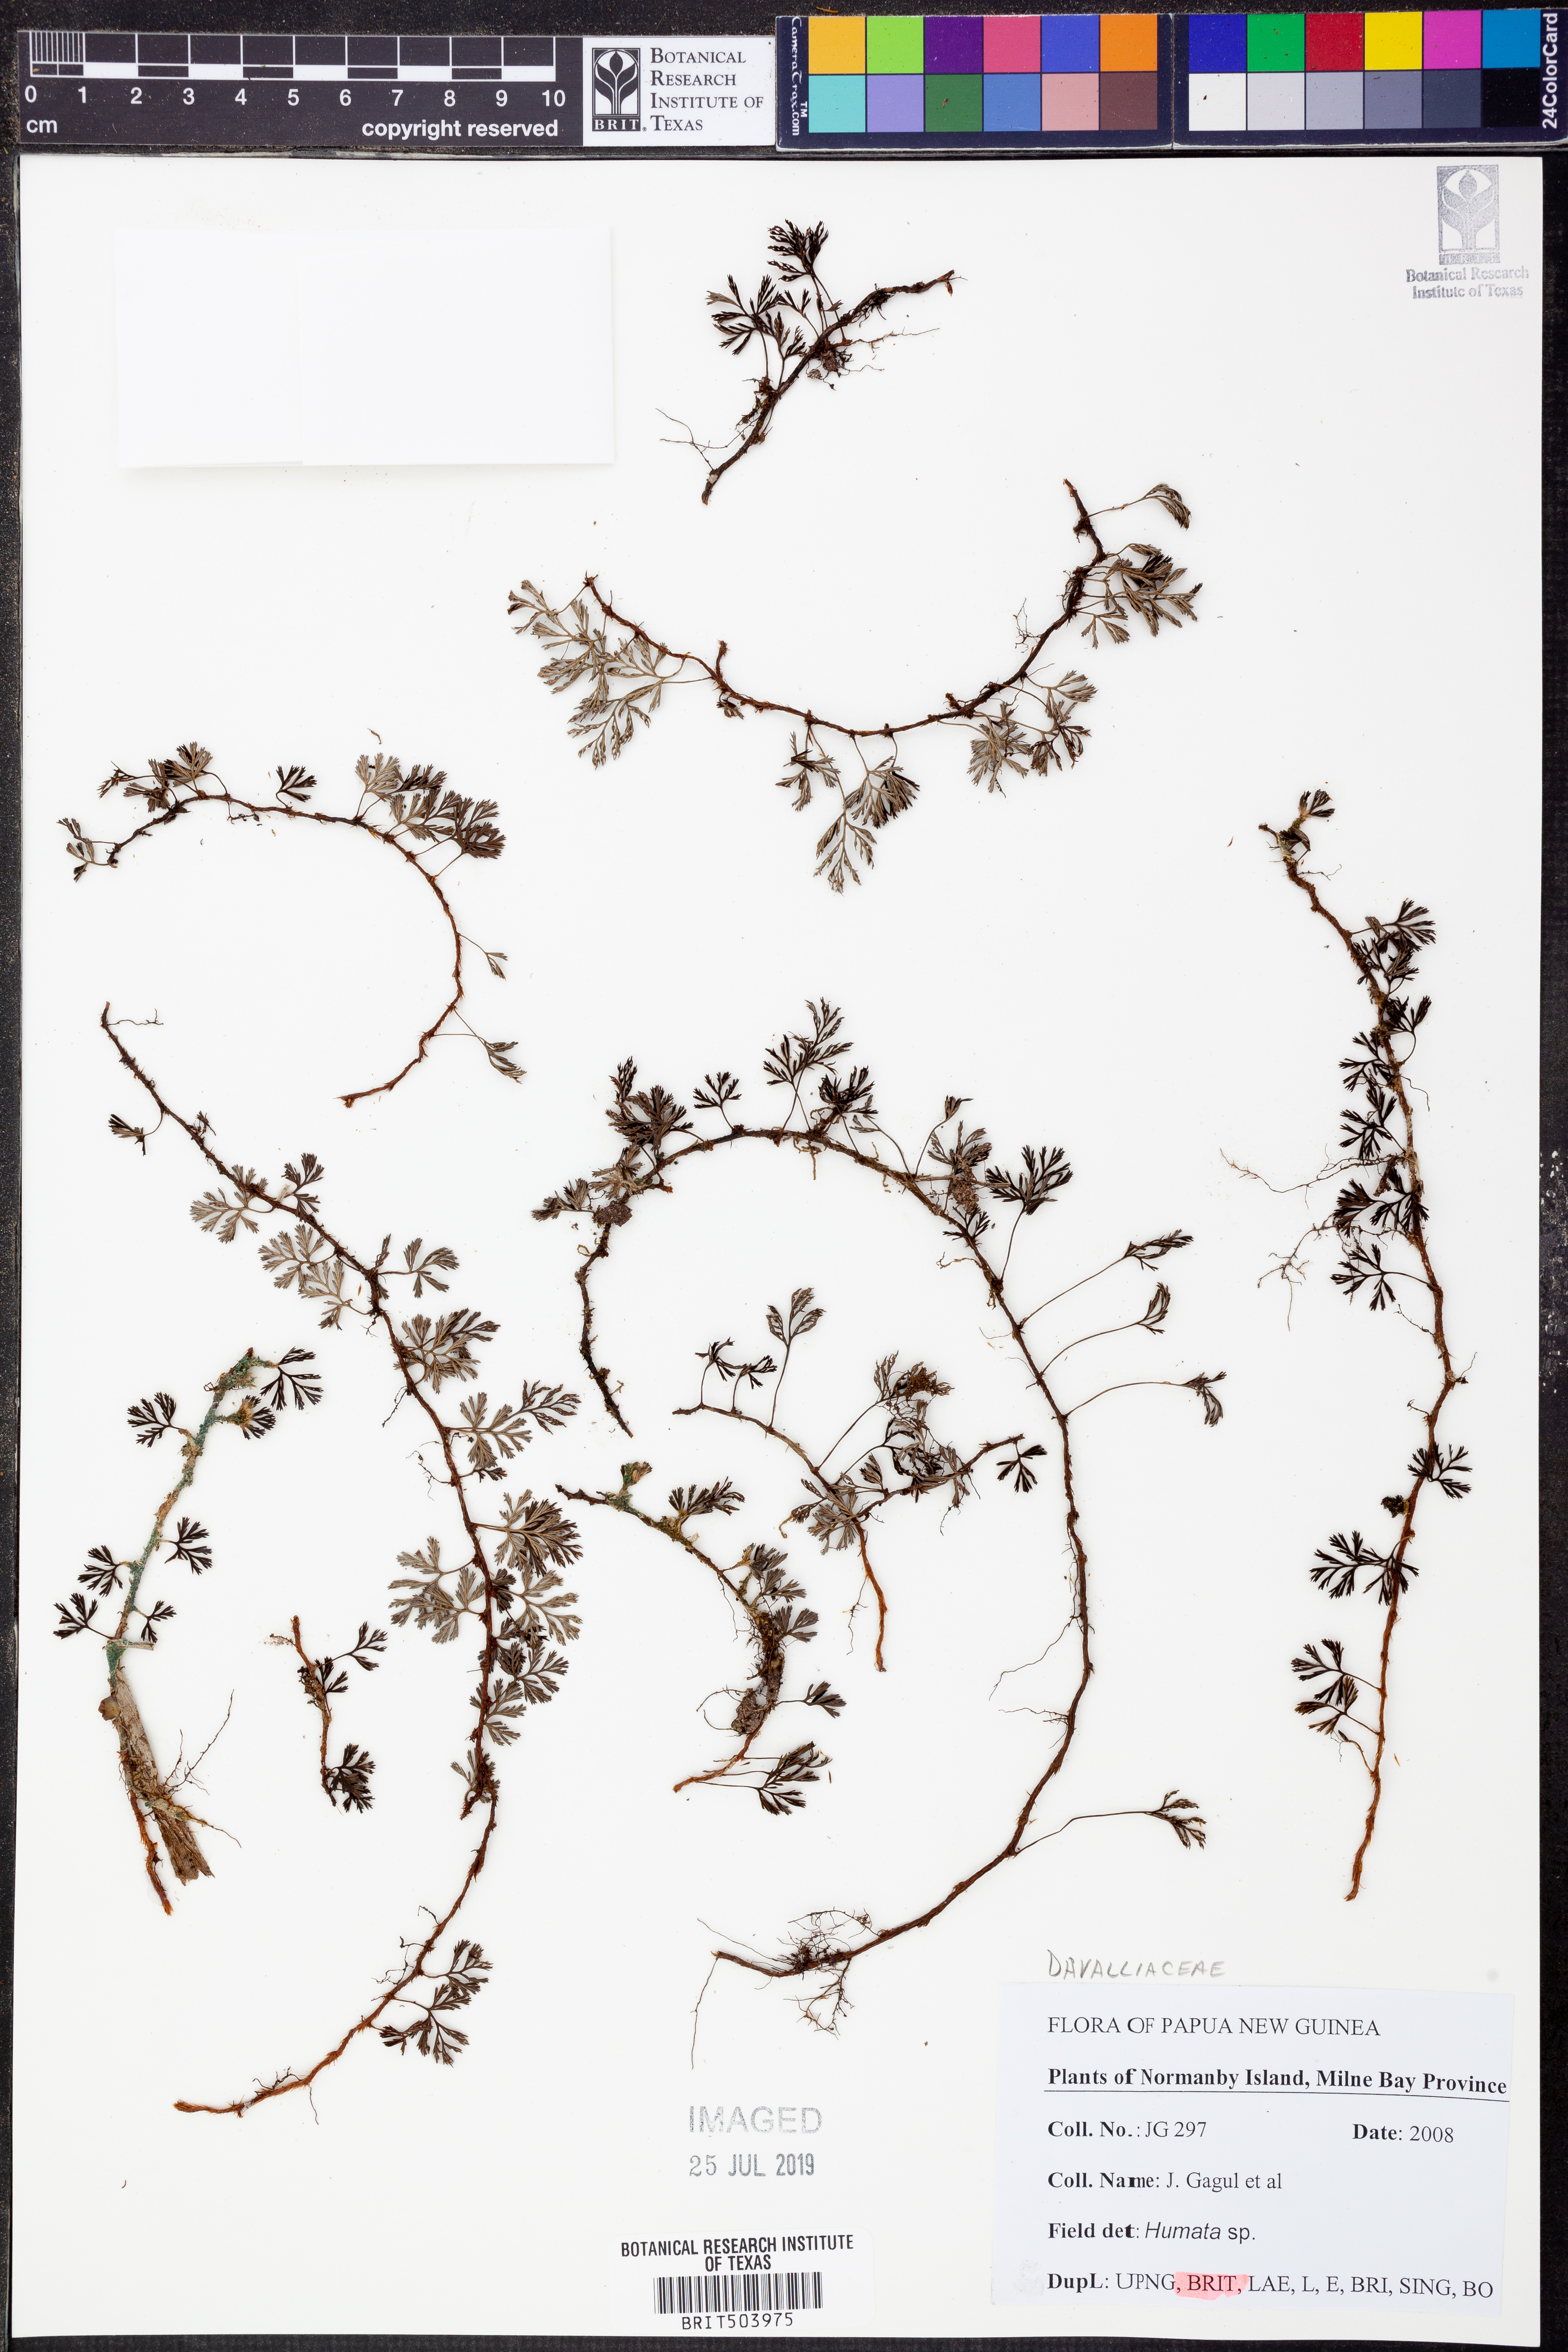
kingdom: Plantae
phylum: Tracheophyta
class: Polypodiopsida
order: Polypodiales
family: Davalliaceae
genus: Davallia
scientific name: Davallia
